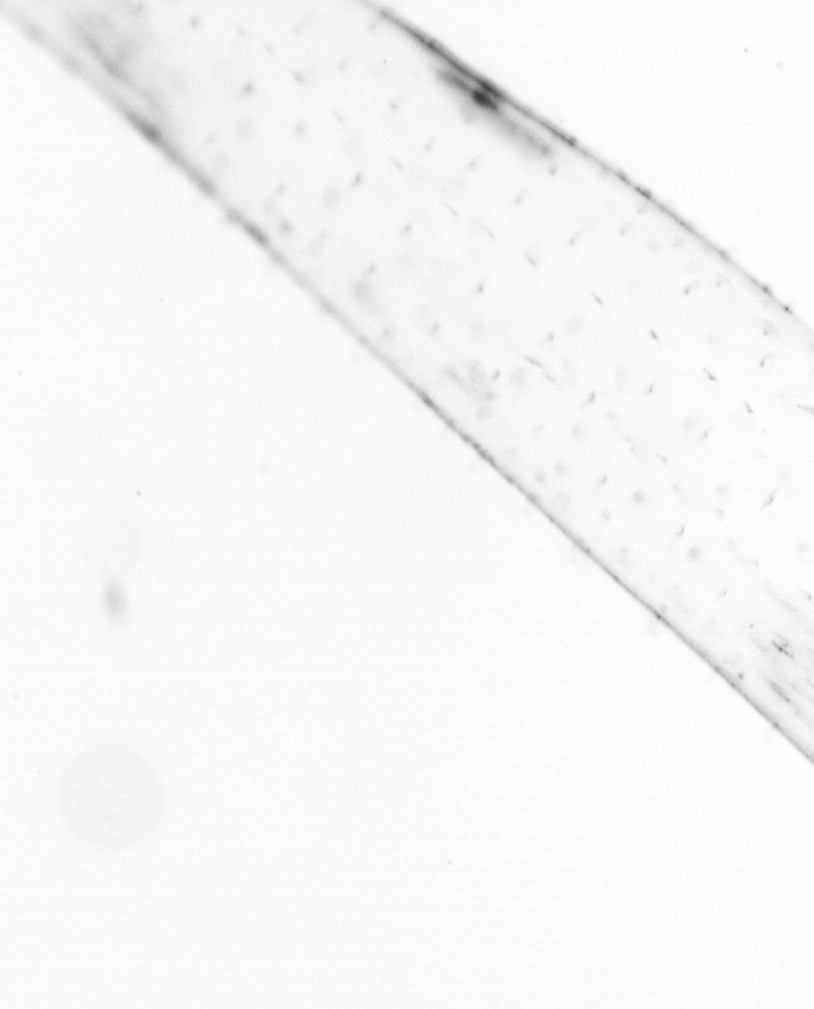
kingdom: Chromista
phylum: Ochrophyta
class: Bacillariophyceae
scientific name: Bacillariophyceae
